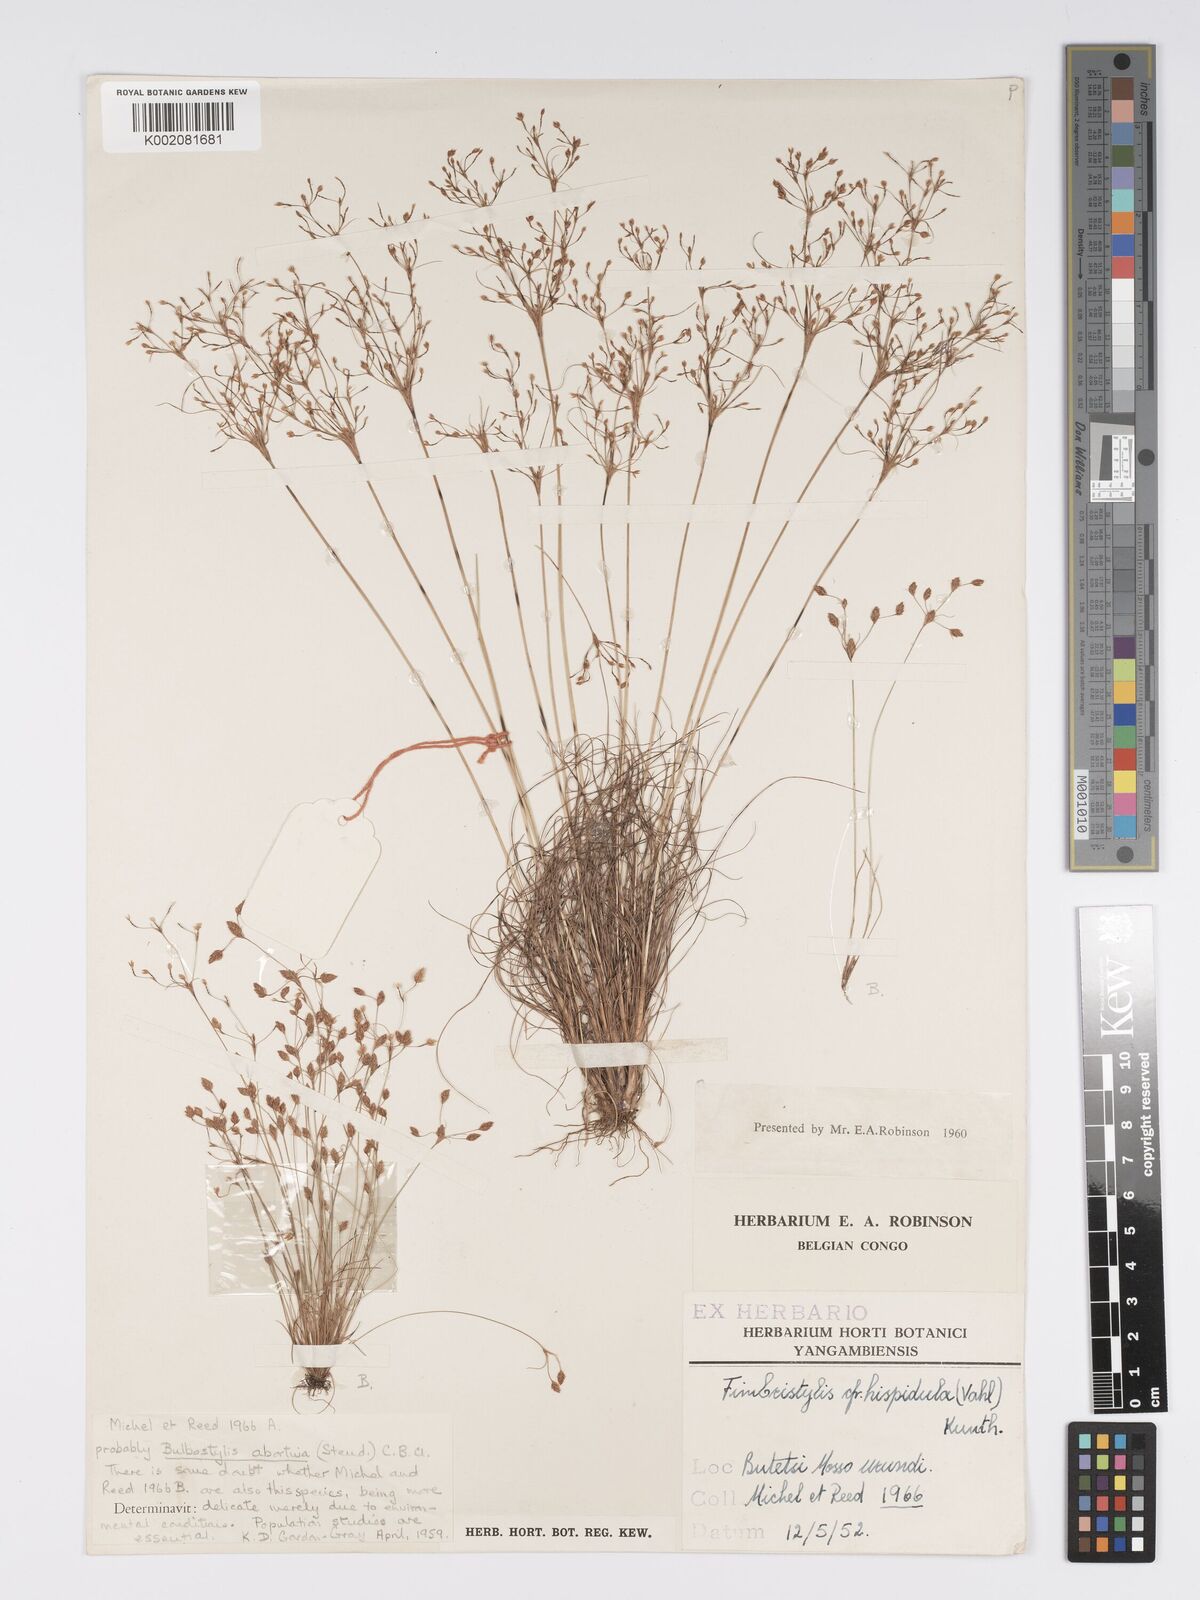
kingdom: Plantae
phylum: Tracheophyta
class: Liliopsida
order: Poales
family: Cyperaceae
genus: Bulbostylis
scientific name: Bulbostylis abortiva
